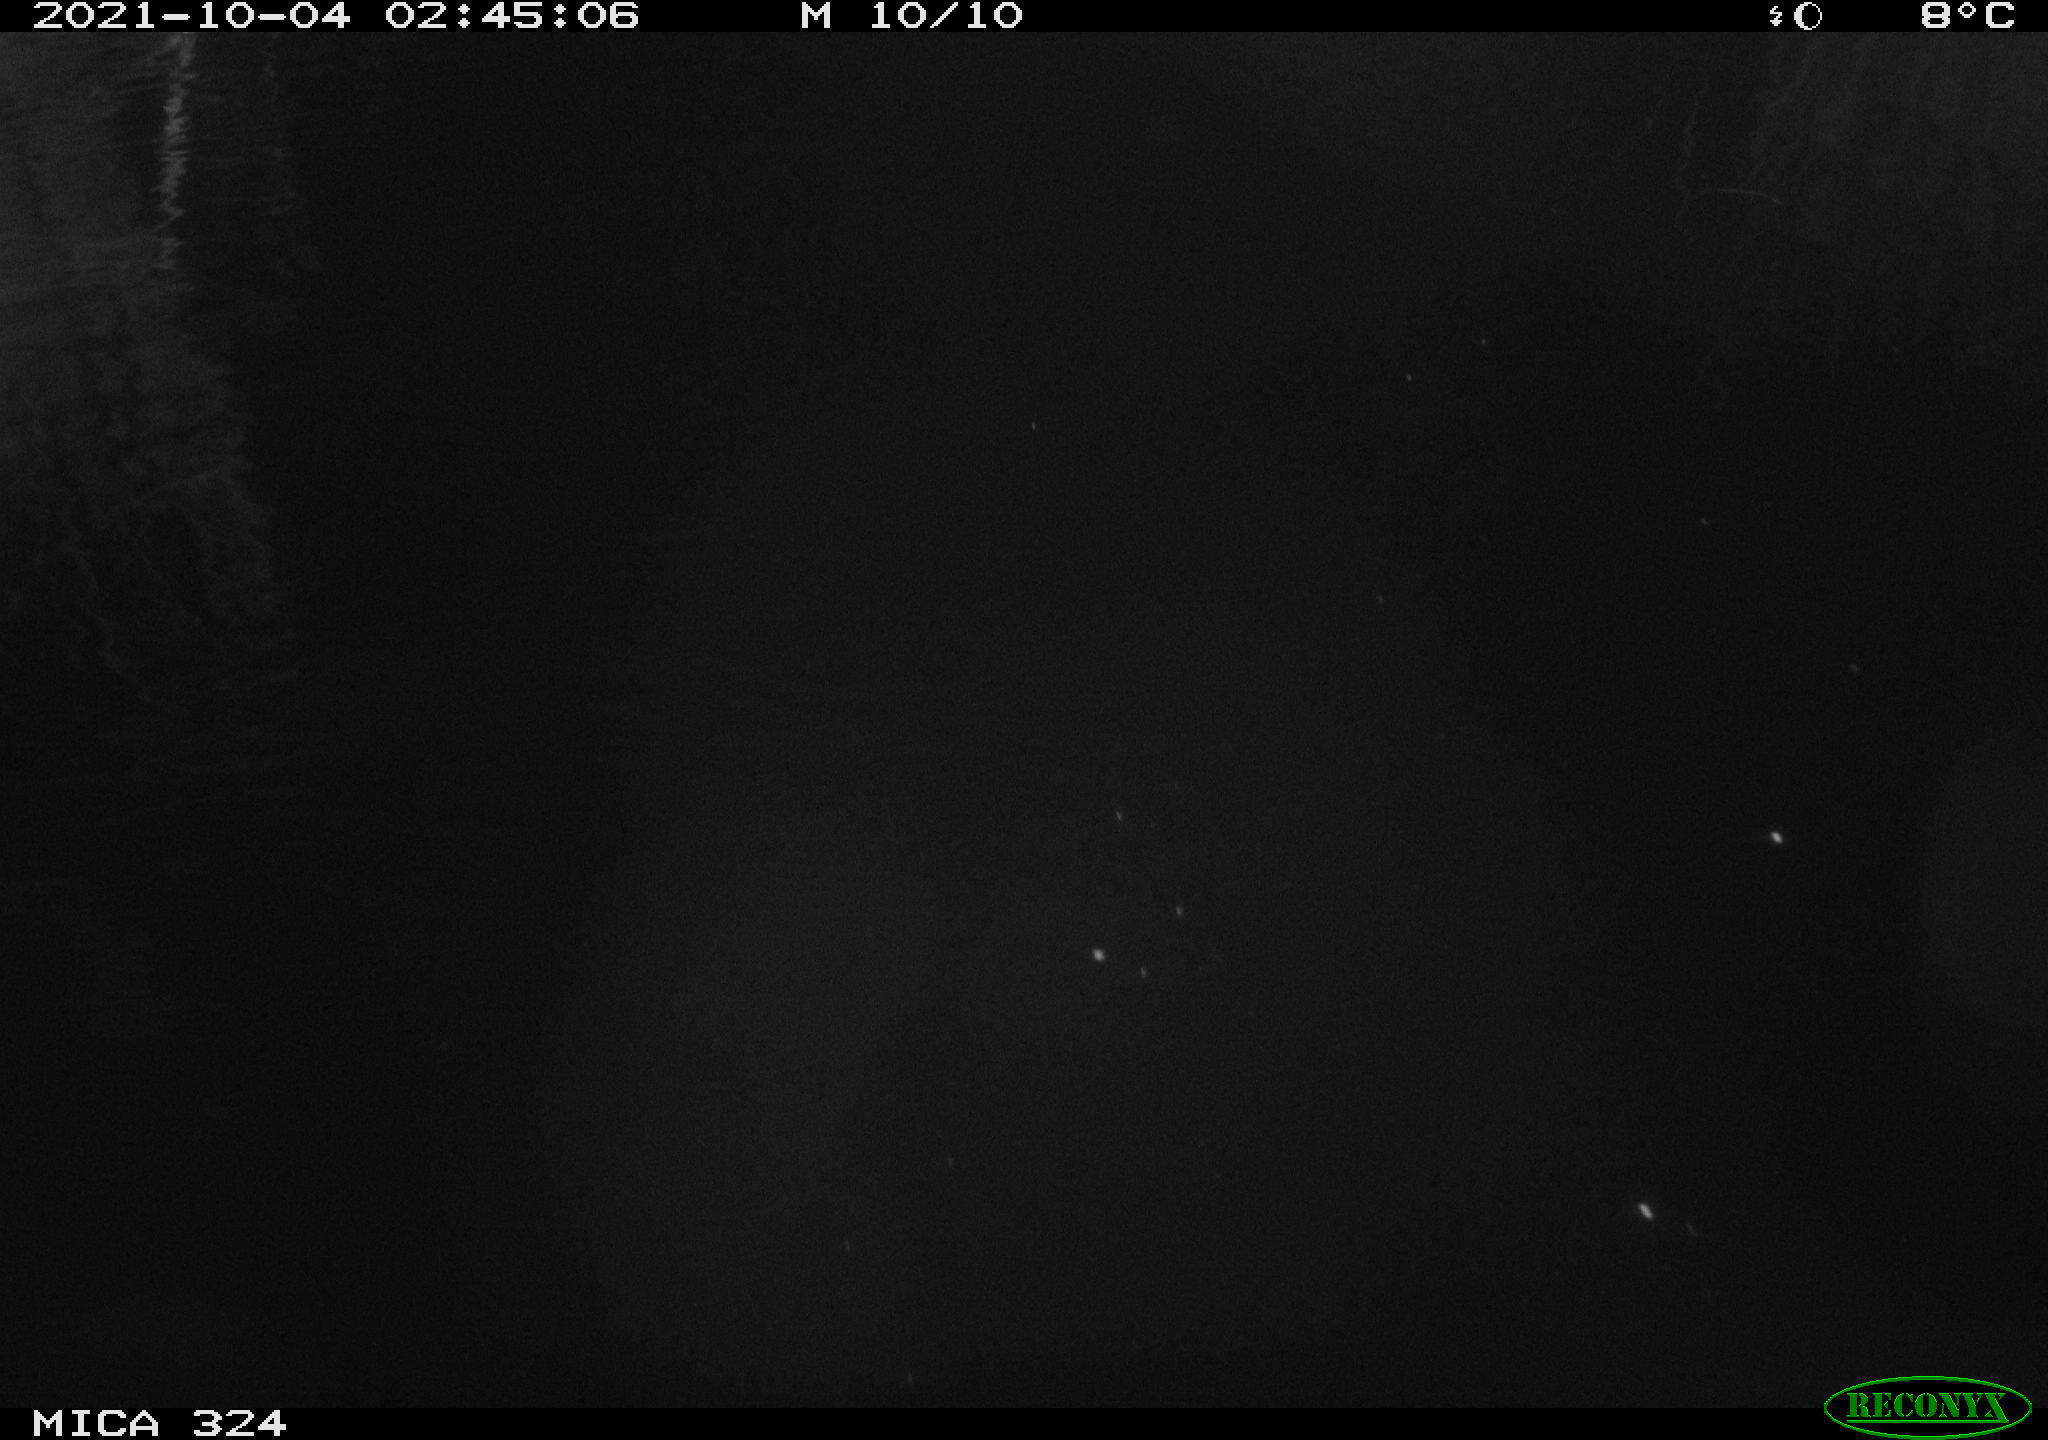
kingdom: Animalia
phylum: Chordata
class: Mammalia
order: Rodentia
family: Cricetidae
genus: Ondatra
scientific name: Ondatra zibethicus
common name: Muskrat
